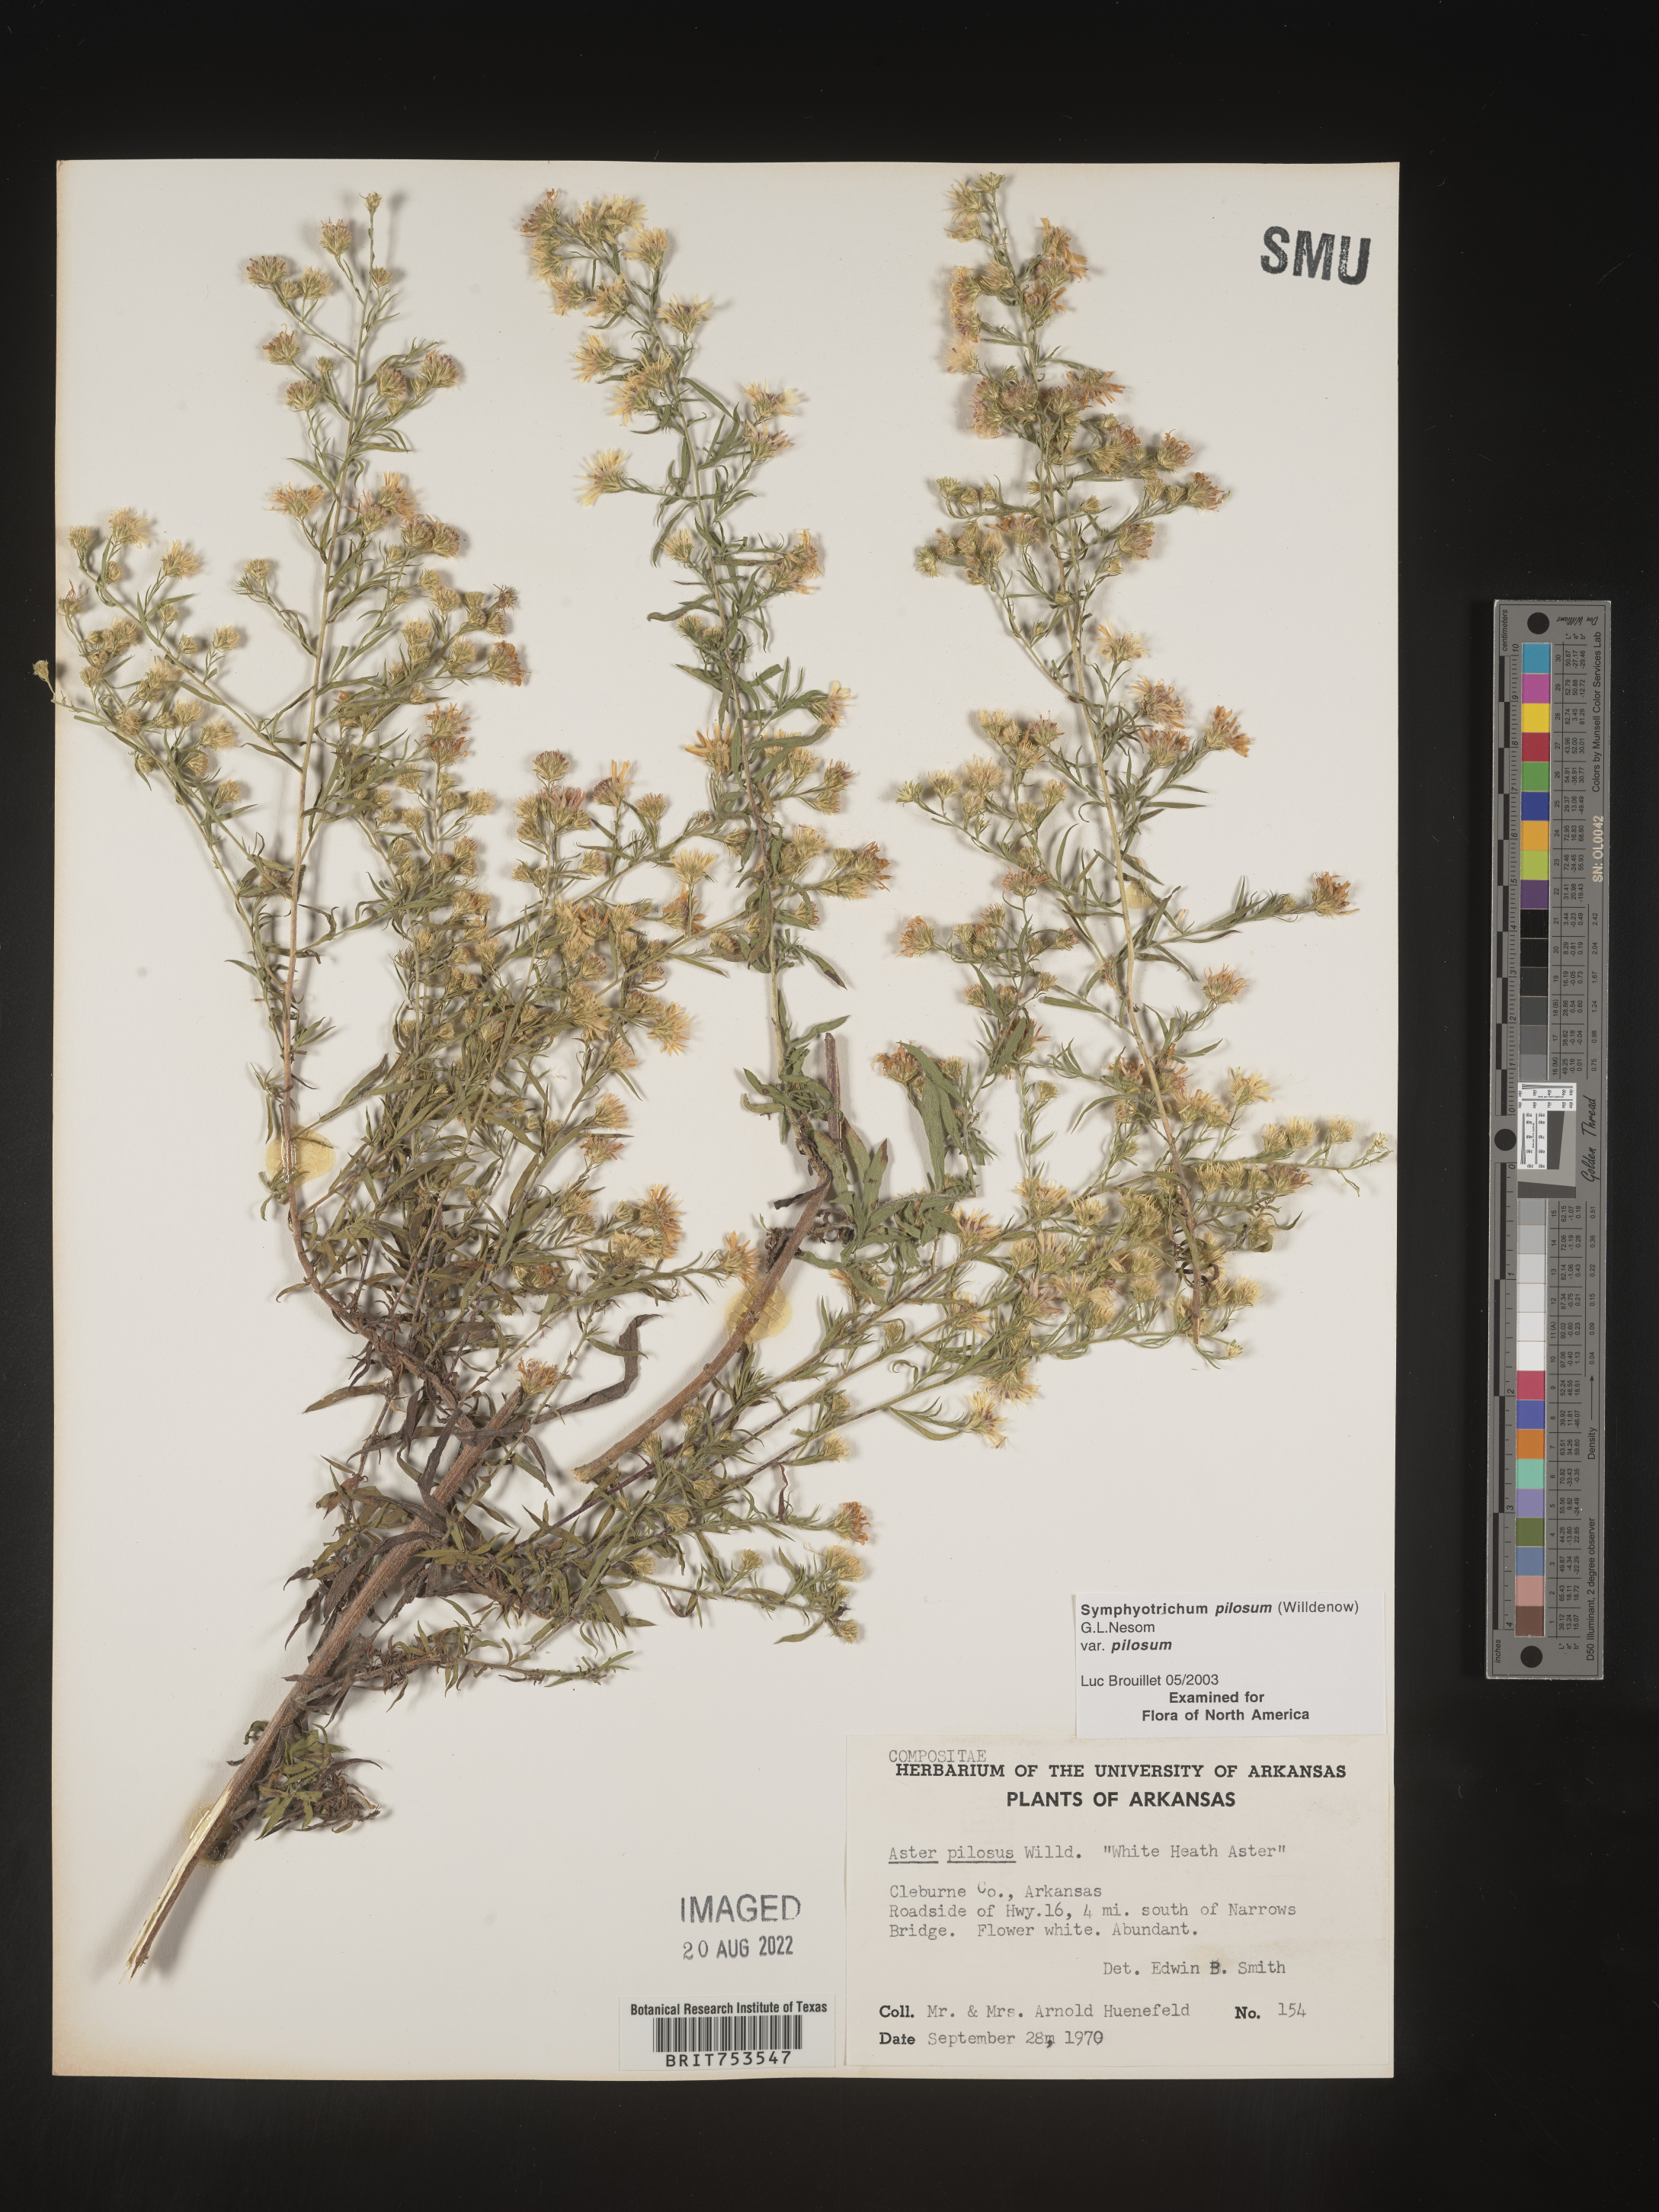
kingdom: Plantae
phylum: Tracheophyta
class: Magnoliopsida
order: Asterales
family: Asteraceae
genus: Symphyotrichum
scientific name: Symphyotrichum pilosum
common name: Awl aster
